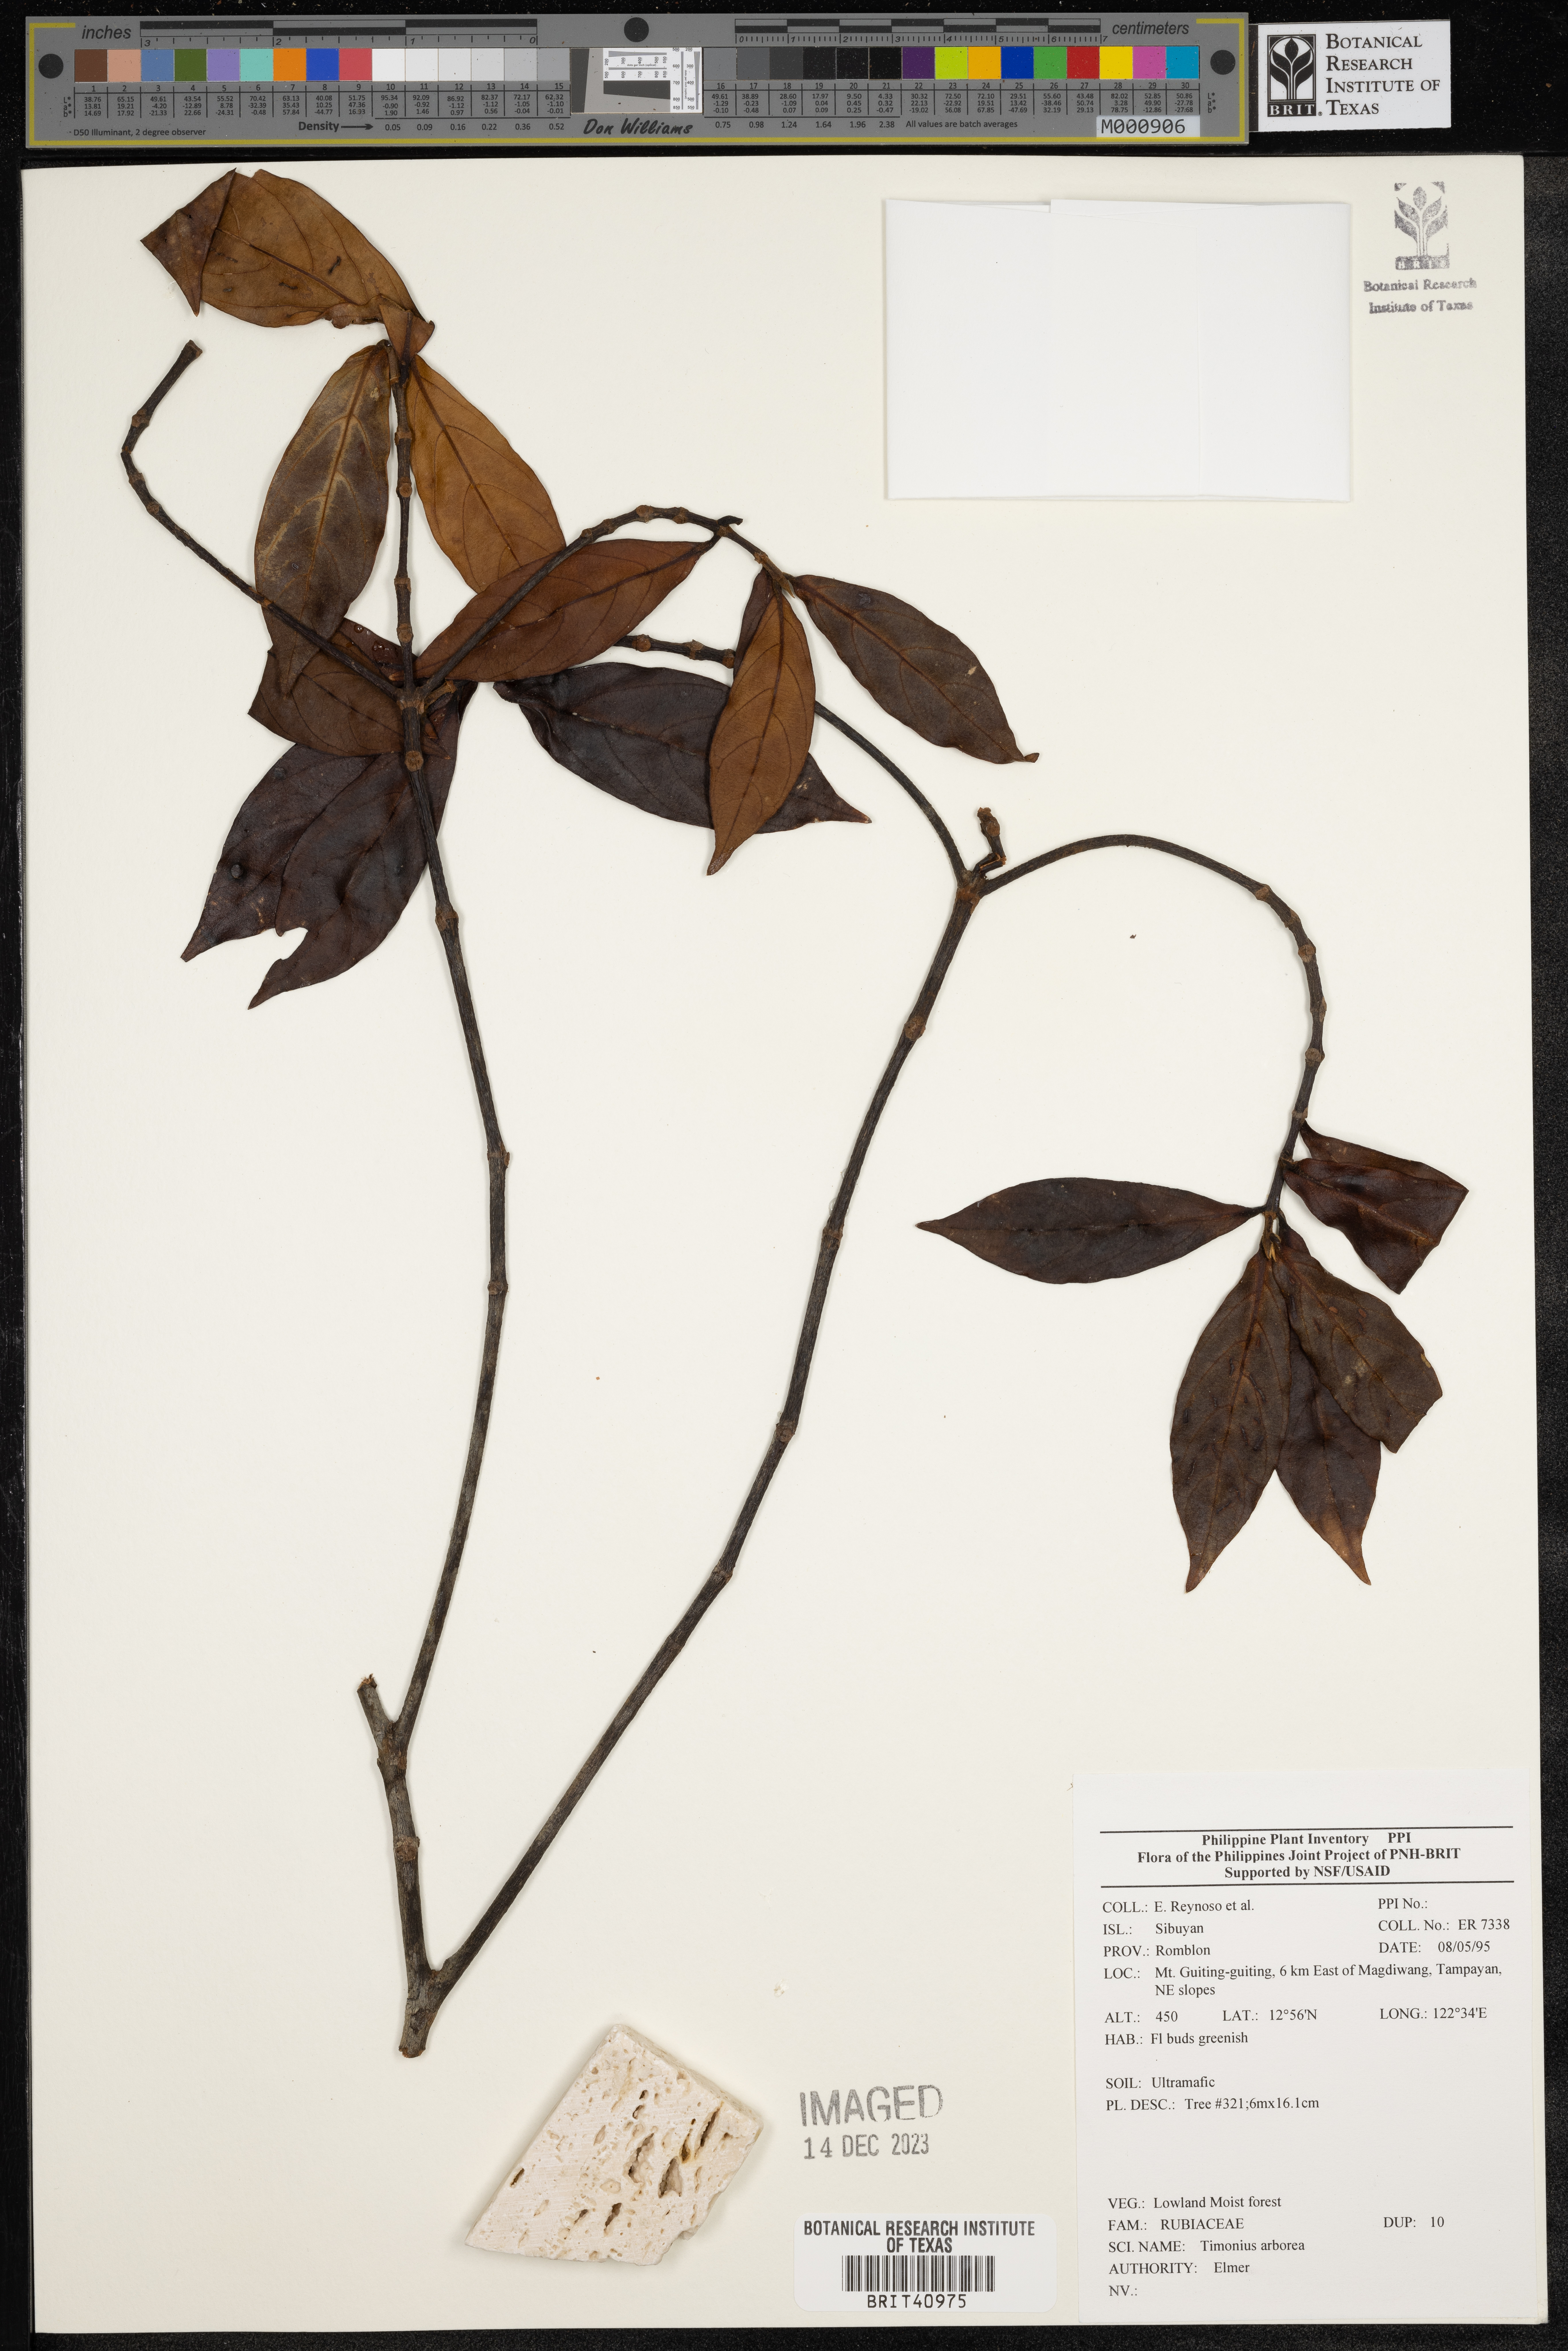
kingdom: Plantae
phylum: Tracheophyta
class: Magnoliopsida
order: Gentianales
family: Rubiaceae
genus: Timonius
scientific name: Timonius
